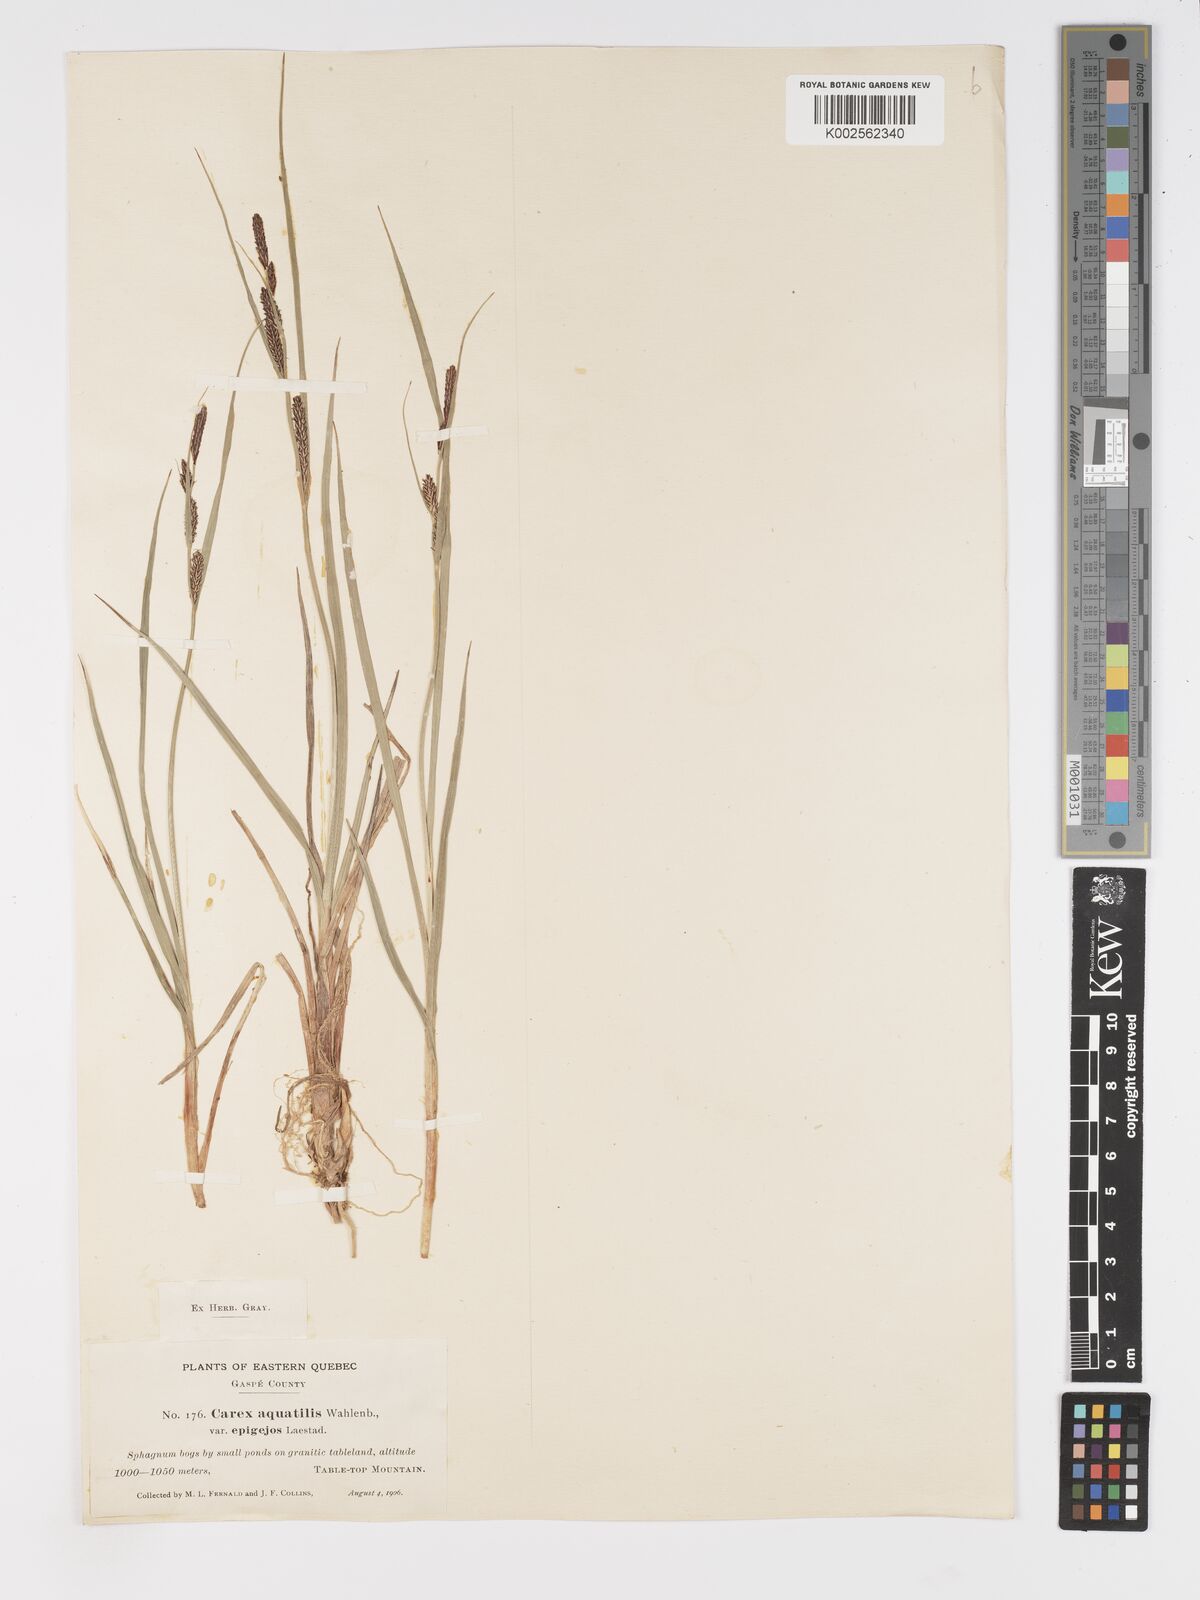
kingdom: Plantae
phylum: Tracheophyta
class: Liliopsida
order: Poales
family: Cyperaceae
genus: Carex
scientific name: Carex aquatilis
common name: Water sedge
